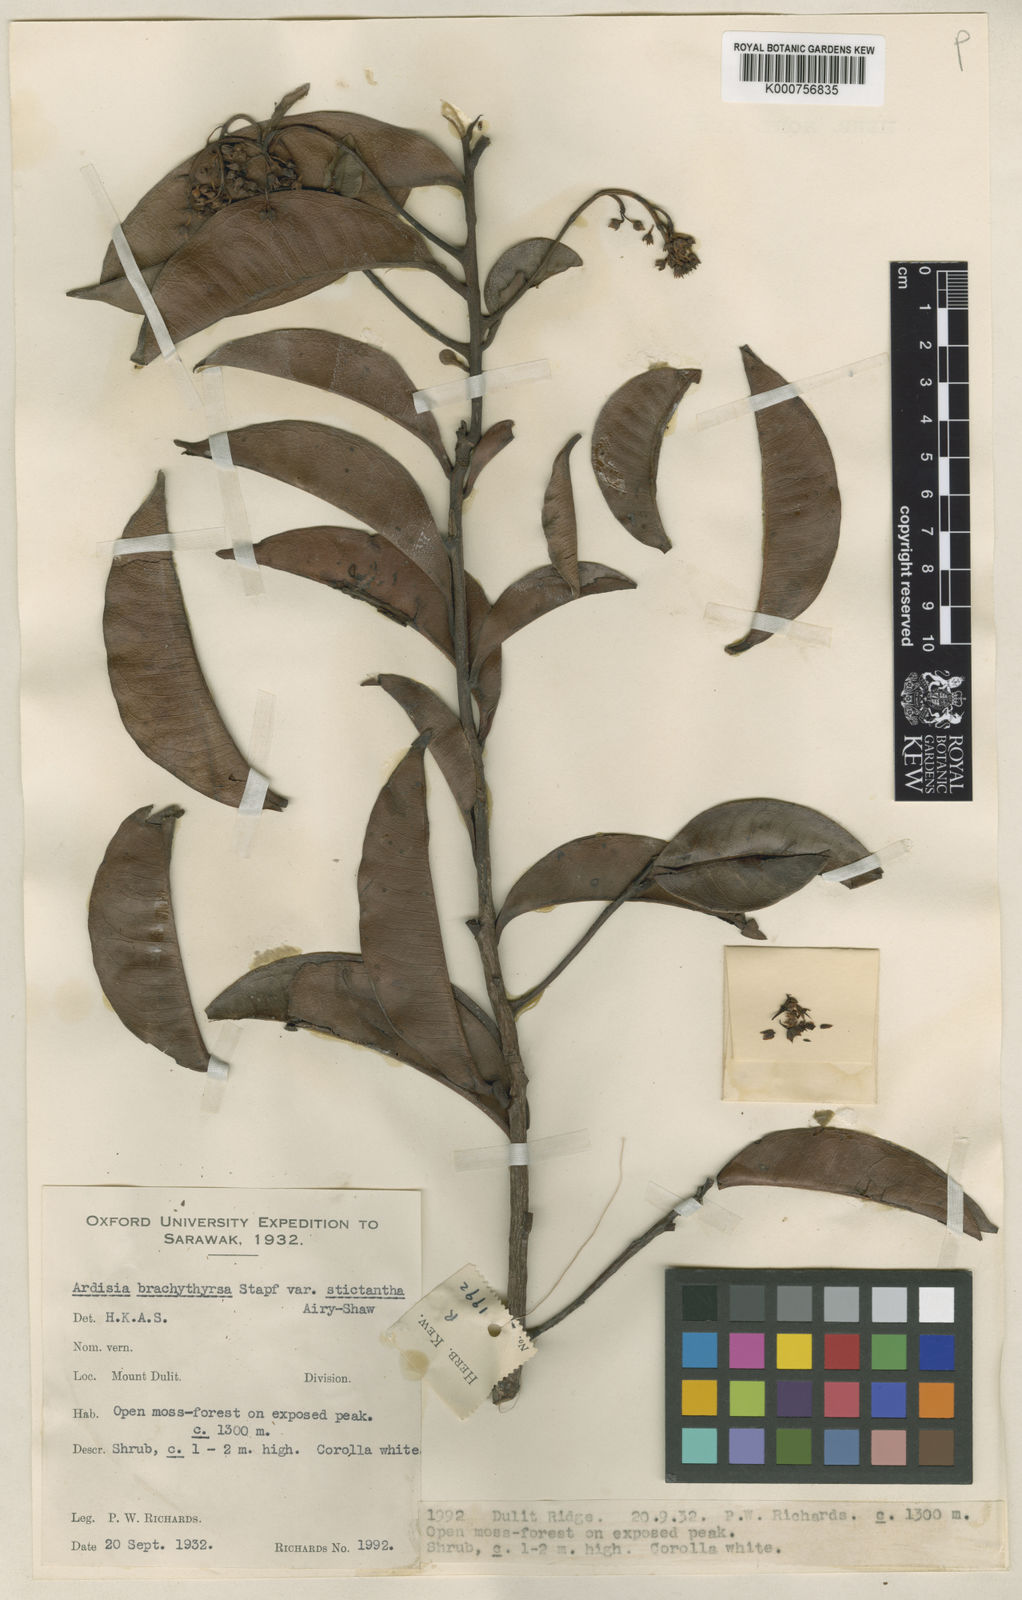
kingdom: Plantae
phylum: Tracheophyta
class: Magnoliopsida
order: Ericales
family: Primulaceae
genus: Ardisia
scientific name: Ardisia brachythyrsa
